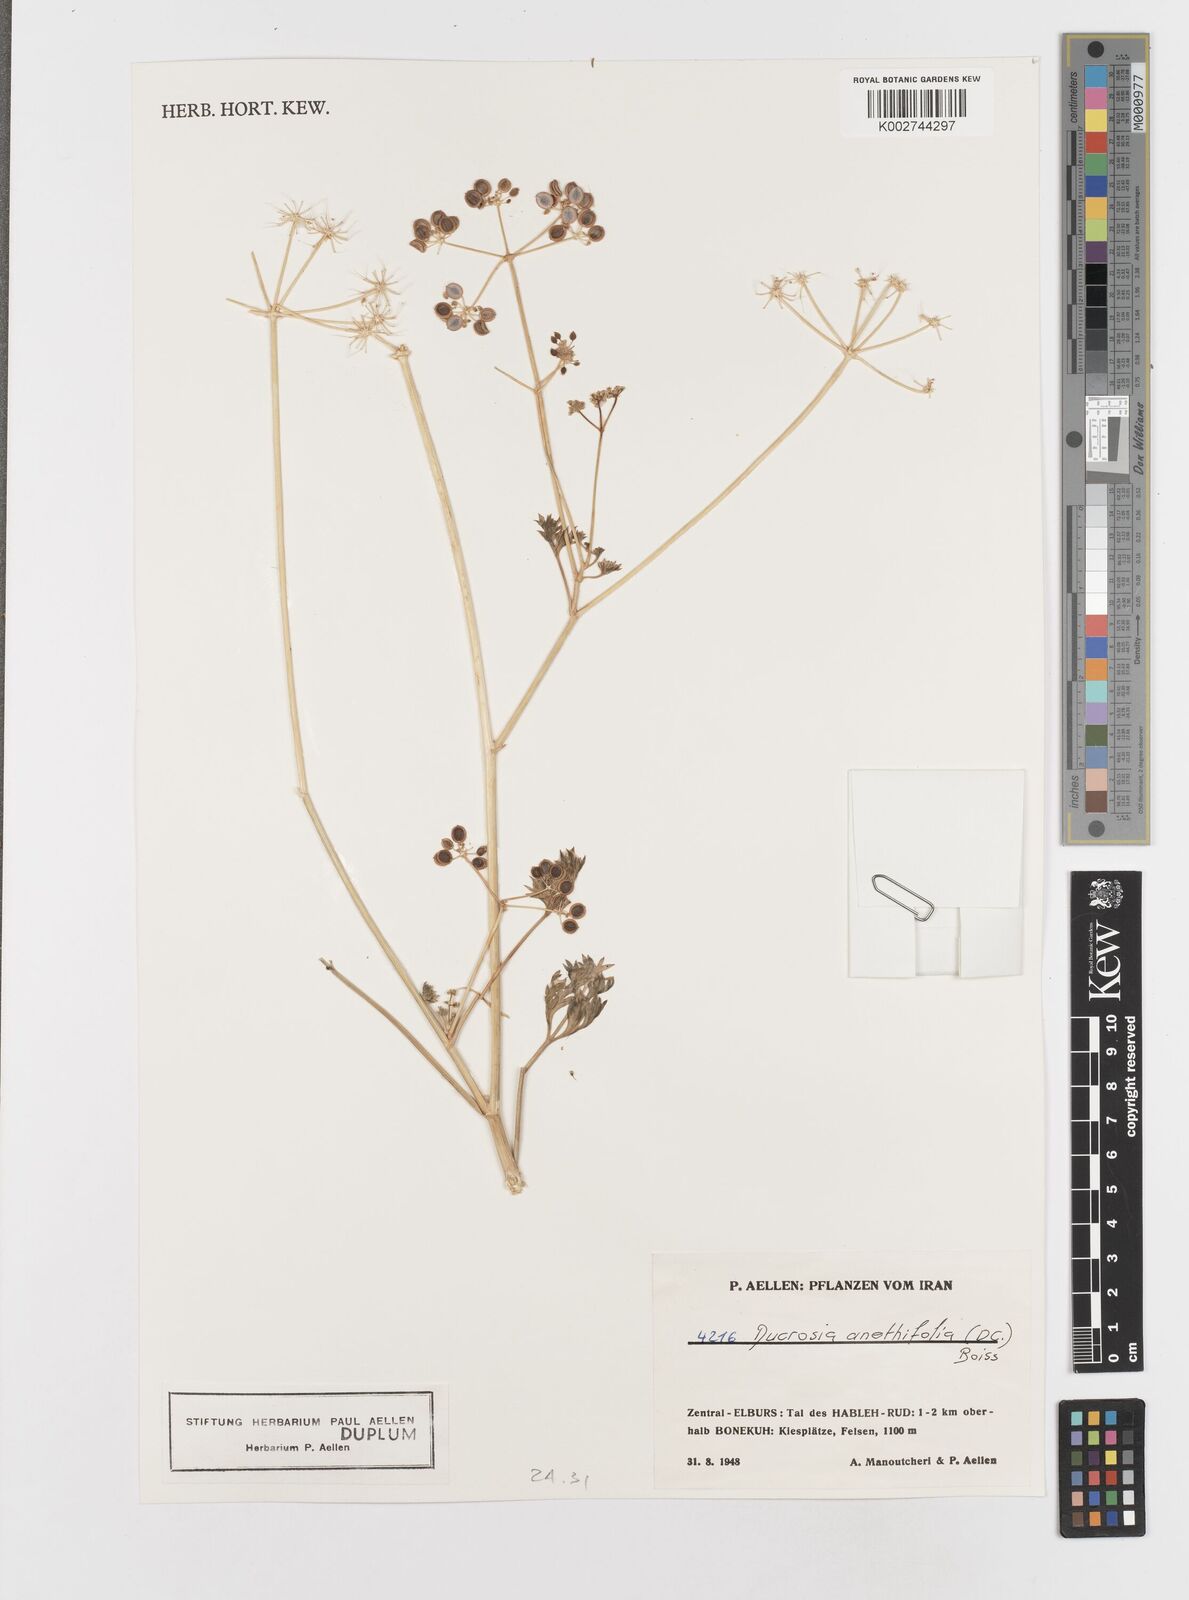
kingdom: Plantae
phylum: Tracheophyta
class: Magnoliopsida
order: Apiales
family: Apiaceae
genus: Ducrosia
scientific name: Ducrosia anethifolia
